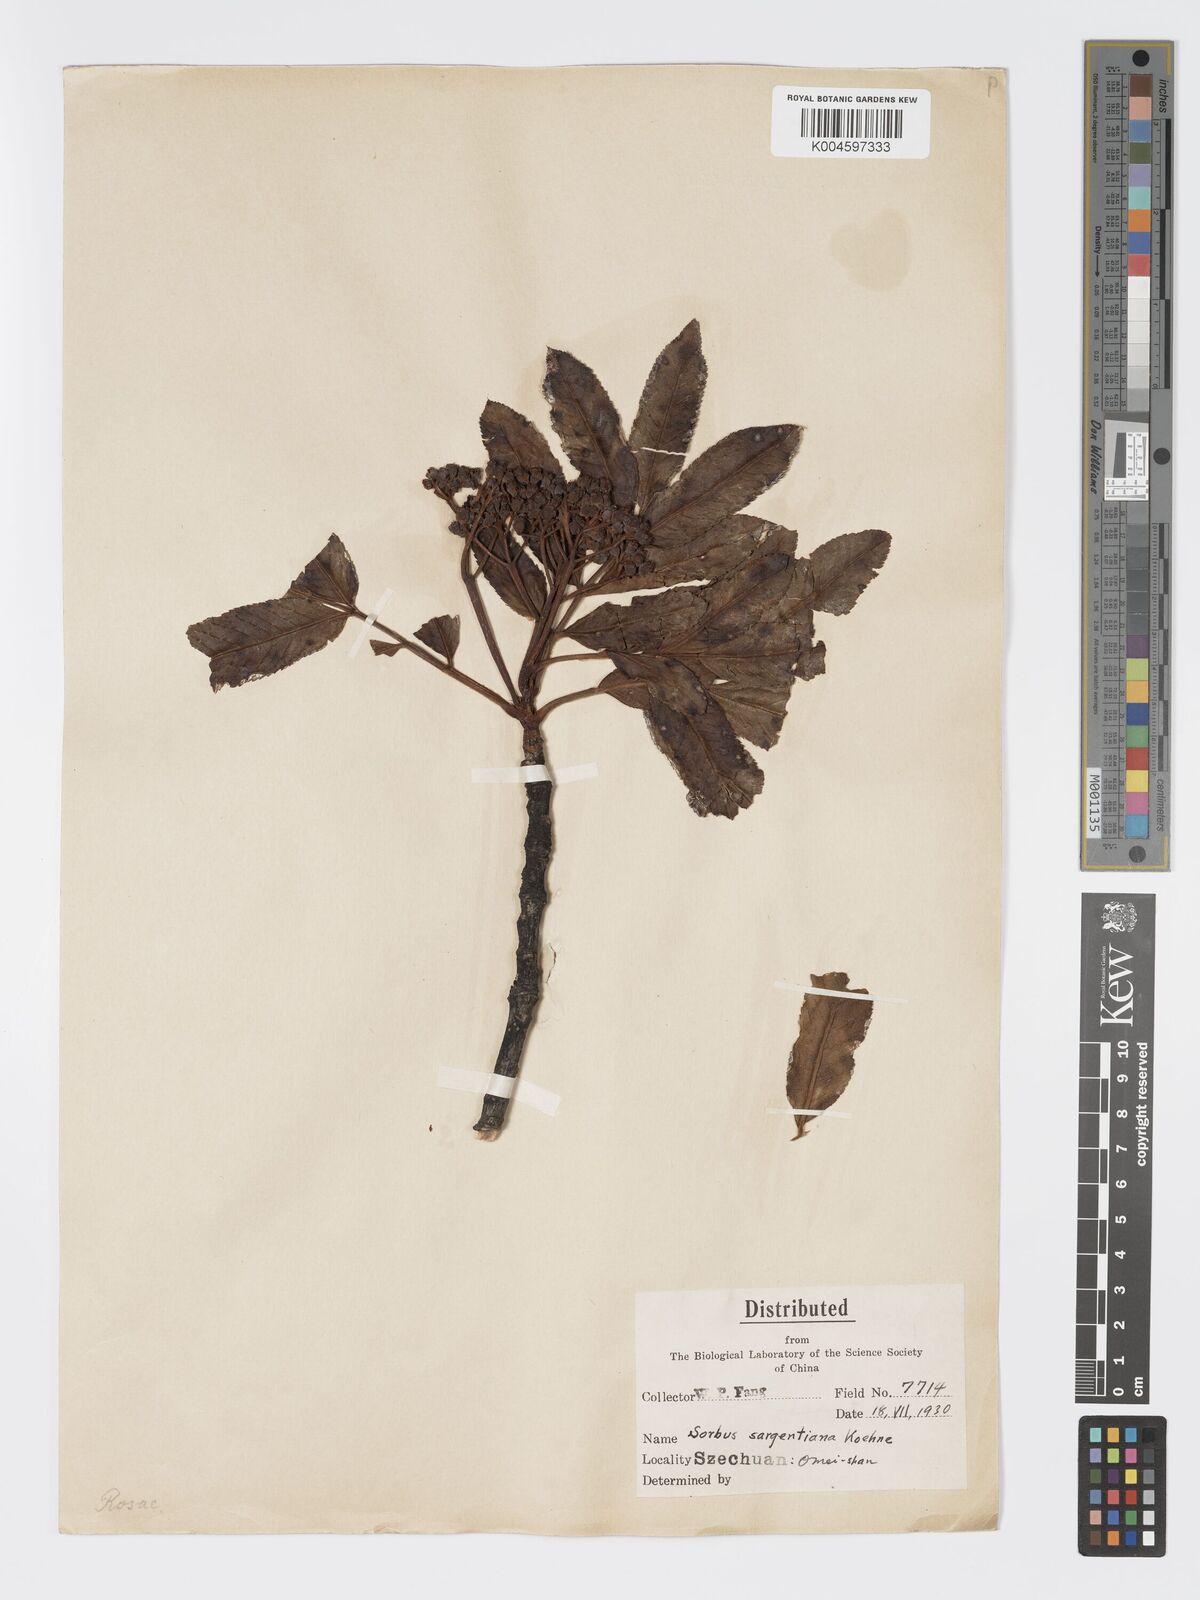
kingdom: Plantae
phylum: Tracheophyta
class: Magnoliopsida
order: Rosales
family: Rosaceae
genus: Sorbus
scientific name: Sorbus
